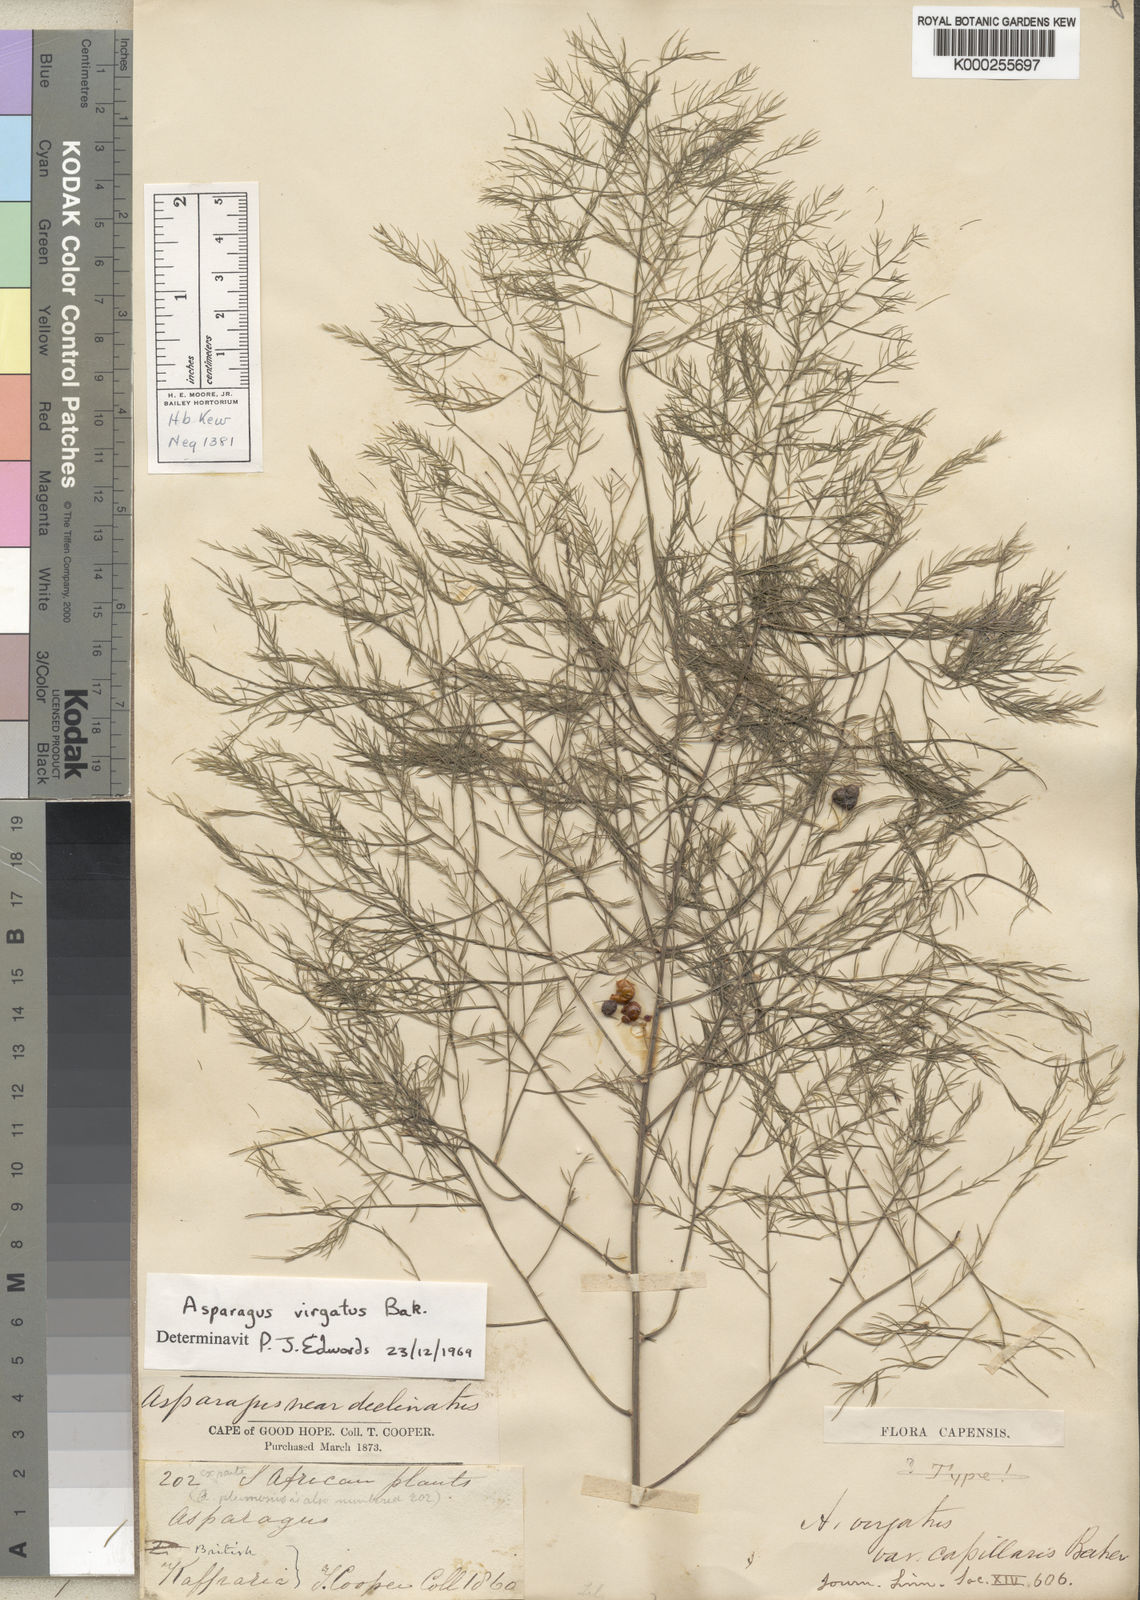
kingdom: Plantae
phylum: Tracheophyta
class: Liliopsida
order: Asparagales
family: Asparagaceae
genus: Asparagus
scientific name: Asparagus virgatus
